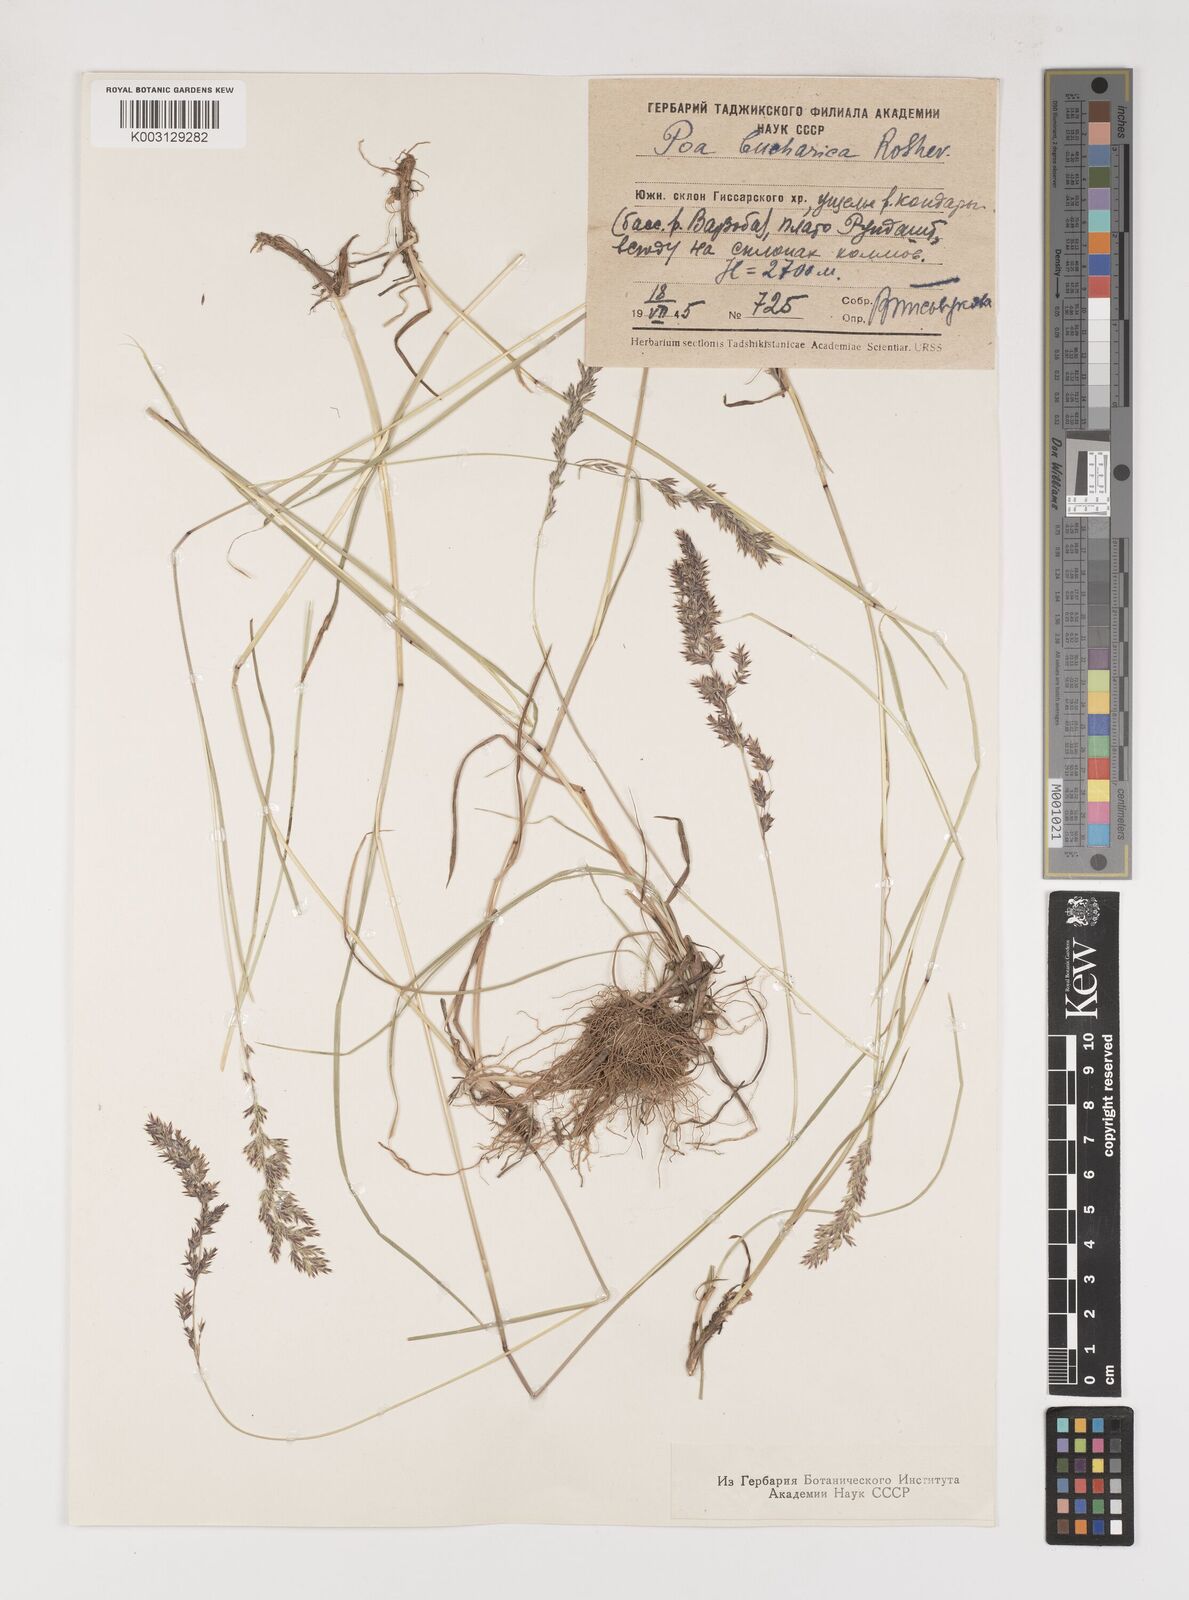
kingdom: Plantae
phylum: Tracheophyta
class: Liliopsida
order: Poales
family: Poaceae
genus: Poa
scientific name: Poa bucharica
